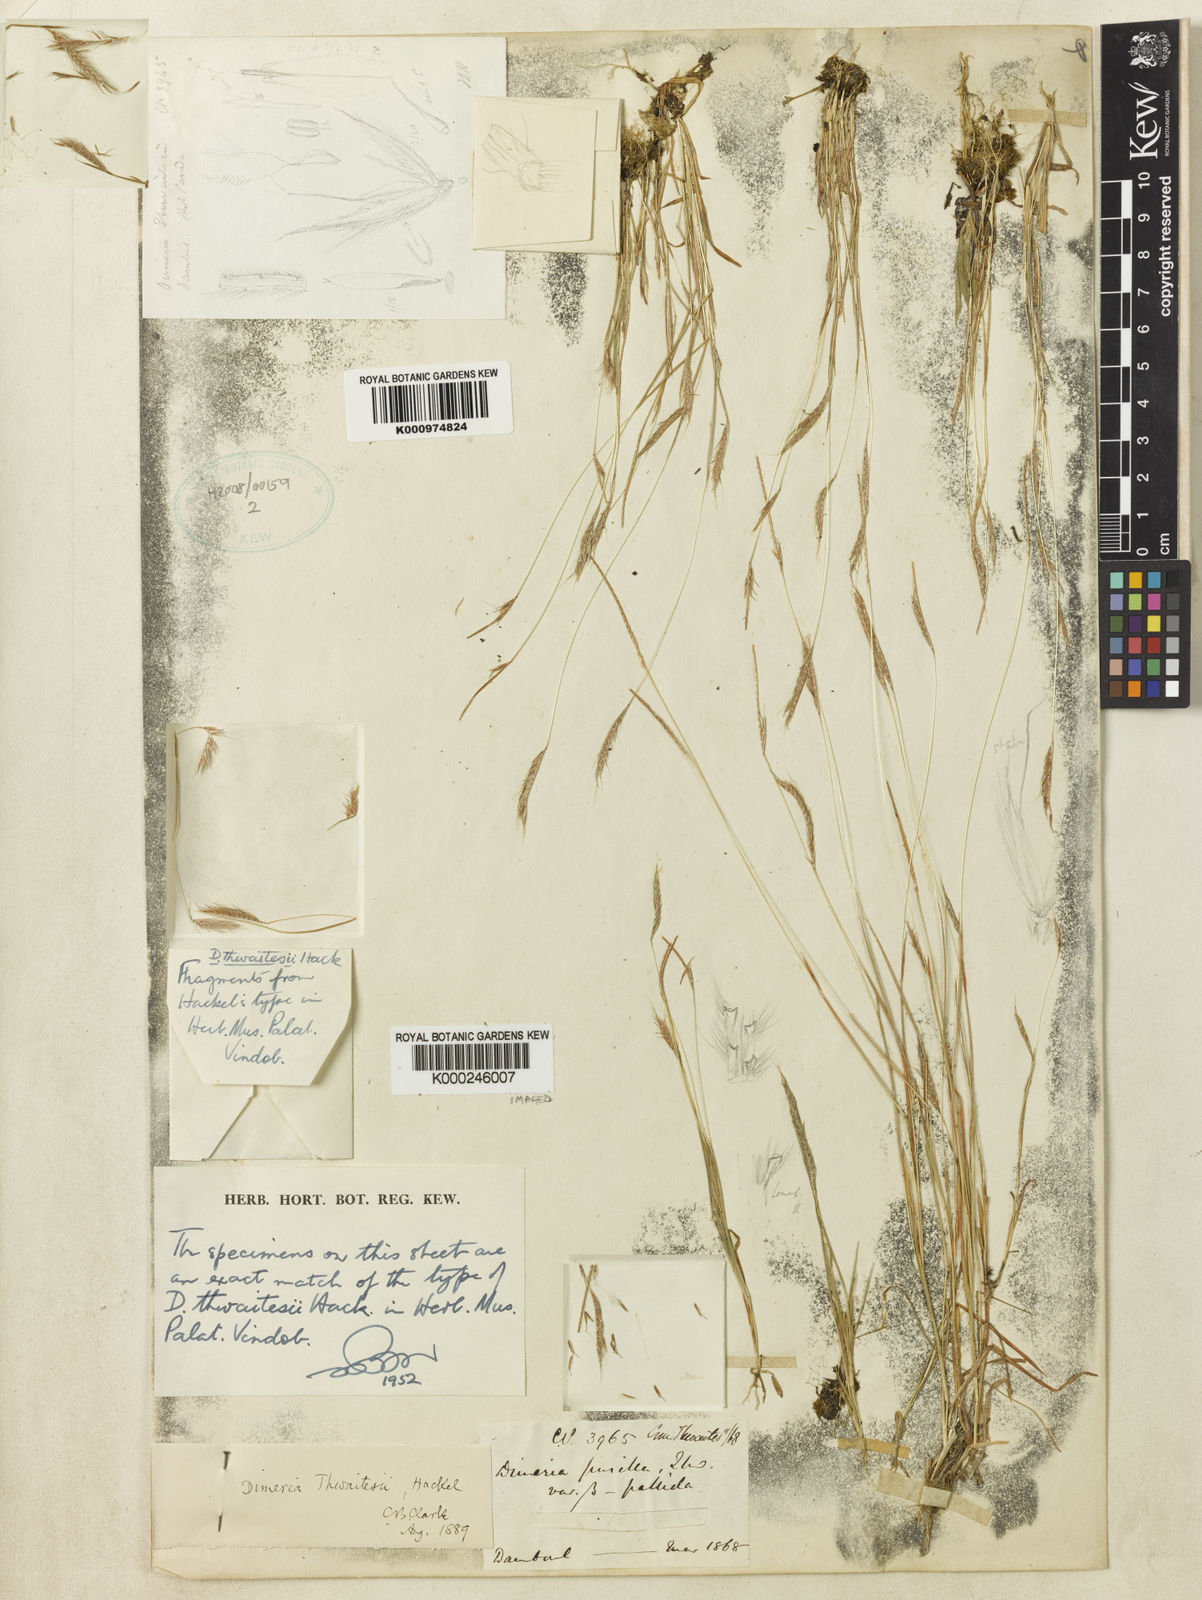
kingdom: Plantae
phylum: Tracheophyta
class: Liliopsida
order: Poales
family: Poaceae
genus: Dimeria
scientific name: Dimeria thwaitesii
